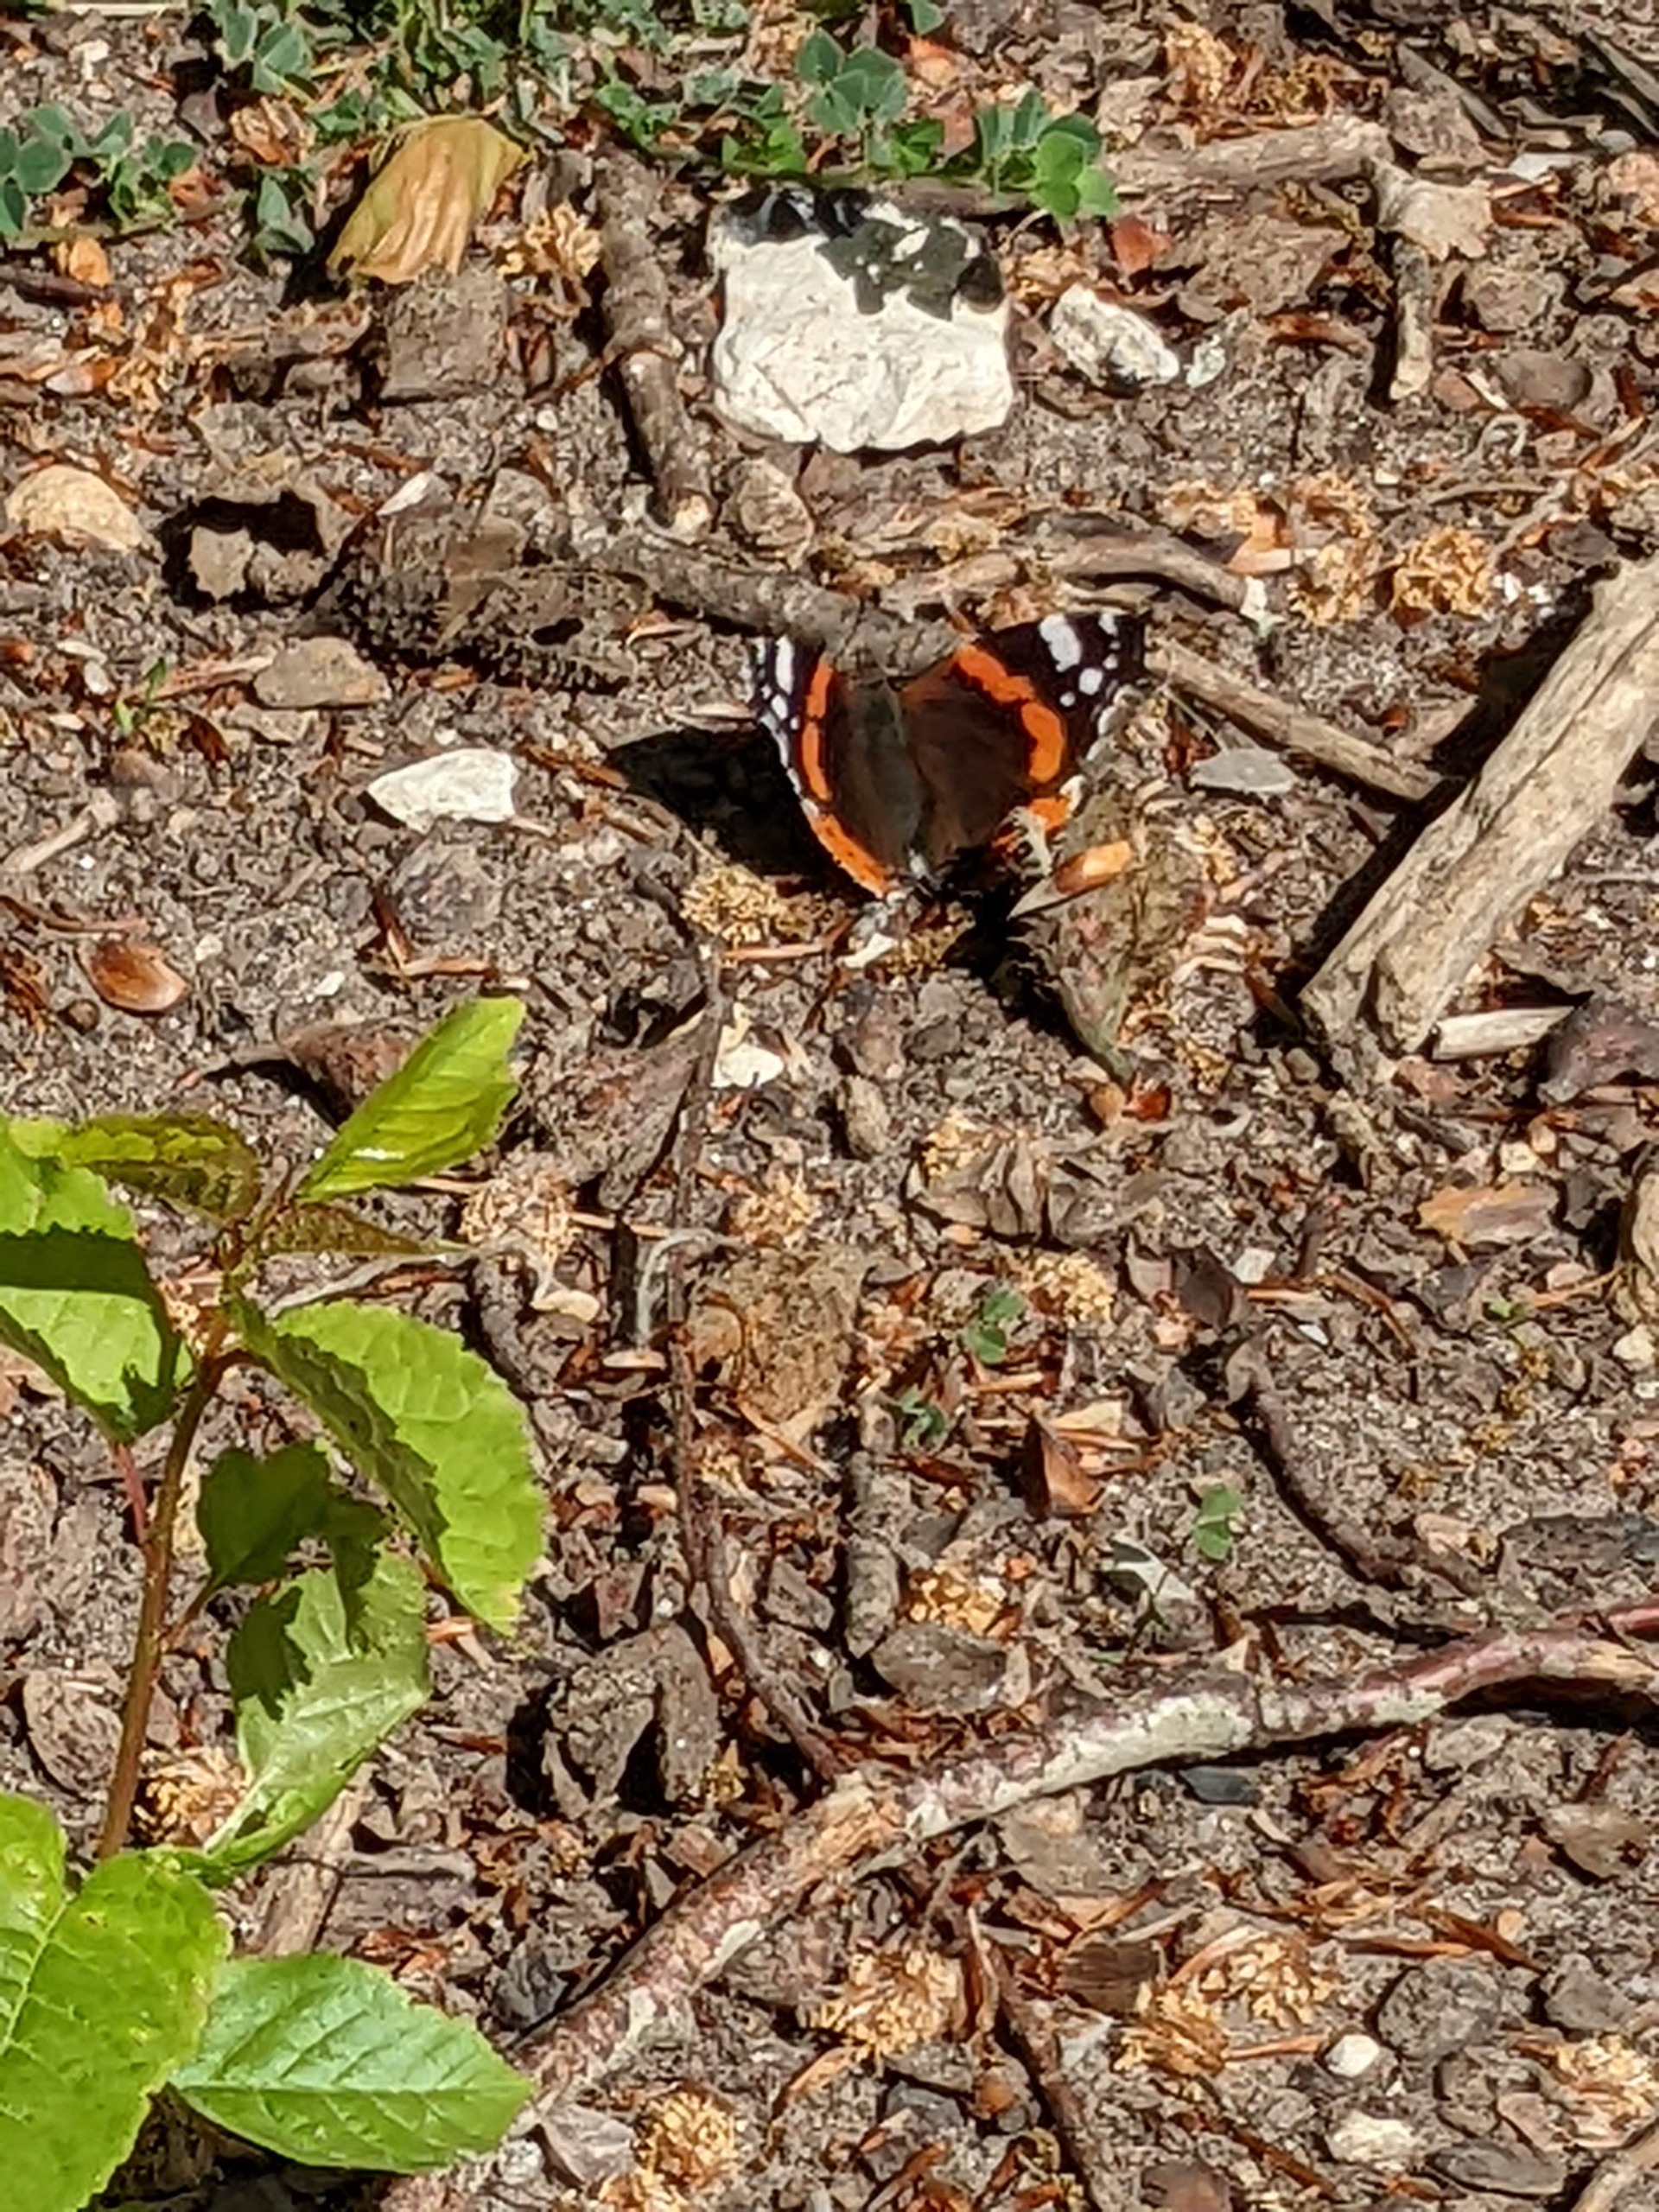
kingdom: Animalia
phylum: Arthropoda
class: Insecta
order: Lepidoptera
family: Nymphalidae
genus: Vanessa
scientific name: Vanessa atalanta
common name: Admiral
